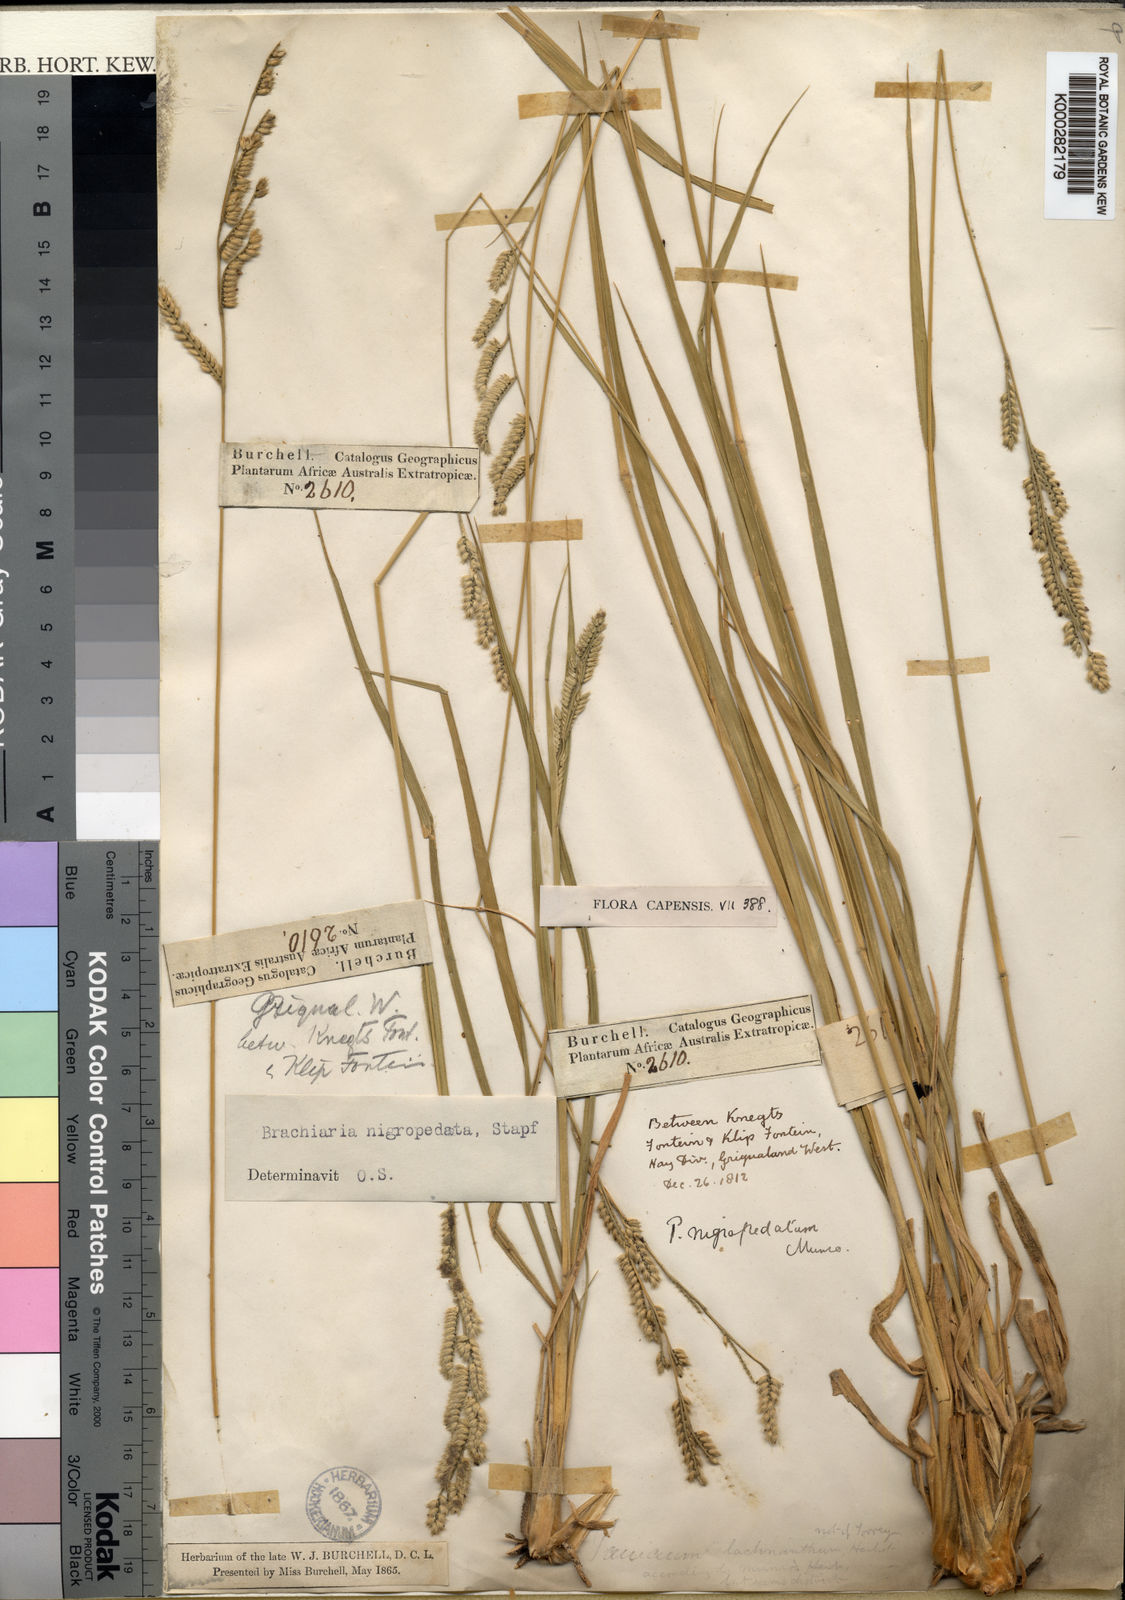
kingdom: Plantae
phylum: Tracheophyta
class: Liliopsida
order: Poales
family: Poaceae
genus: Urochloa
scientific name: Urochloa nigropedata
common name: Spotted signal grass
